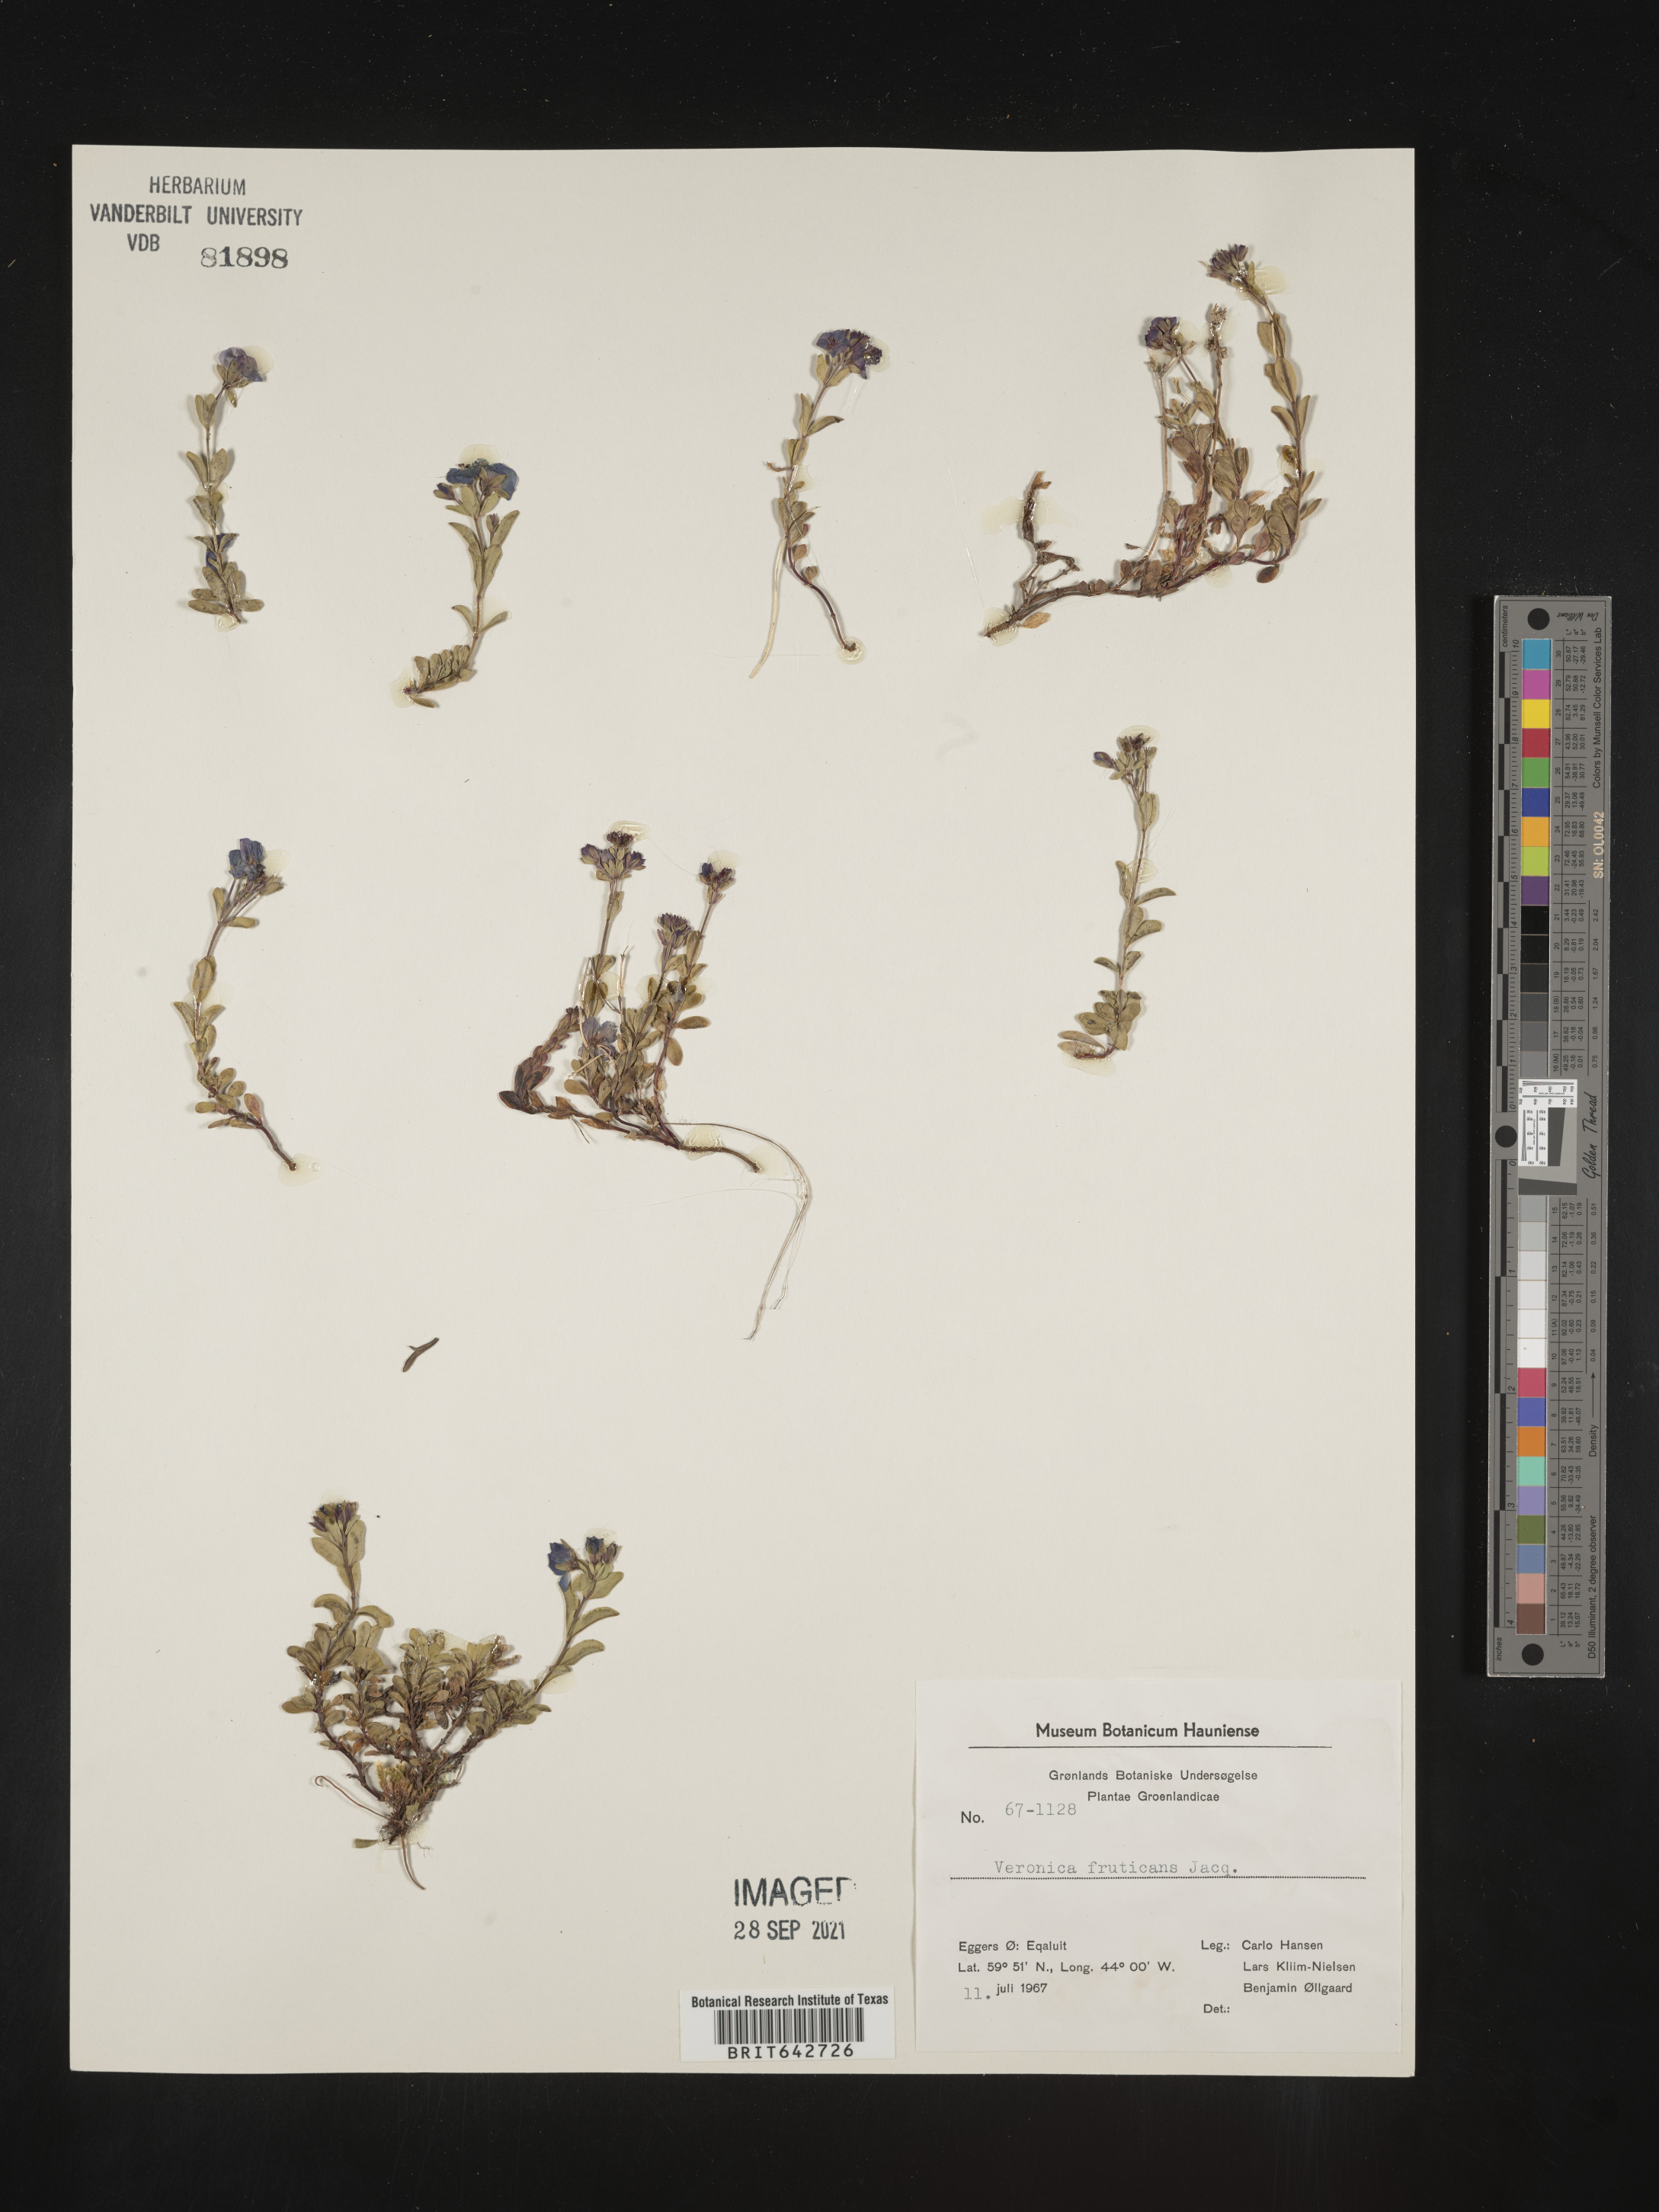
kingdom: Plantae
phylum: Tracheophyta
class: Magnoliopsida
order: Lamiales
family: Plantaginaceae
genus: Veronica
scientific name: Veronica
